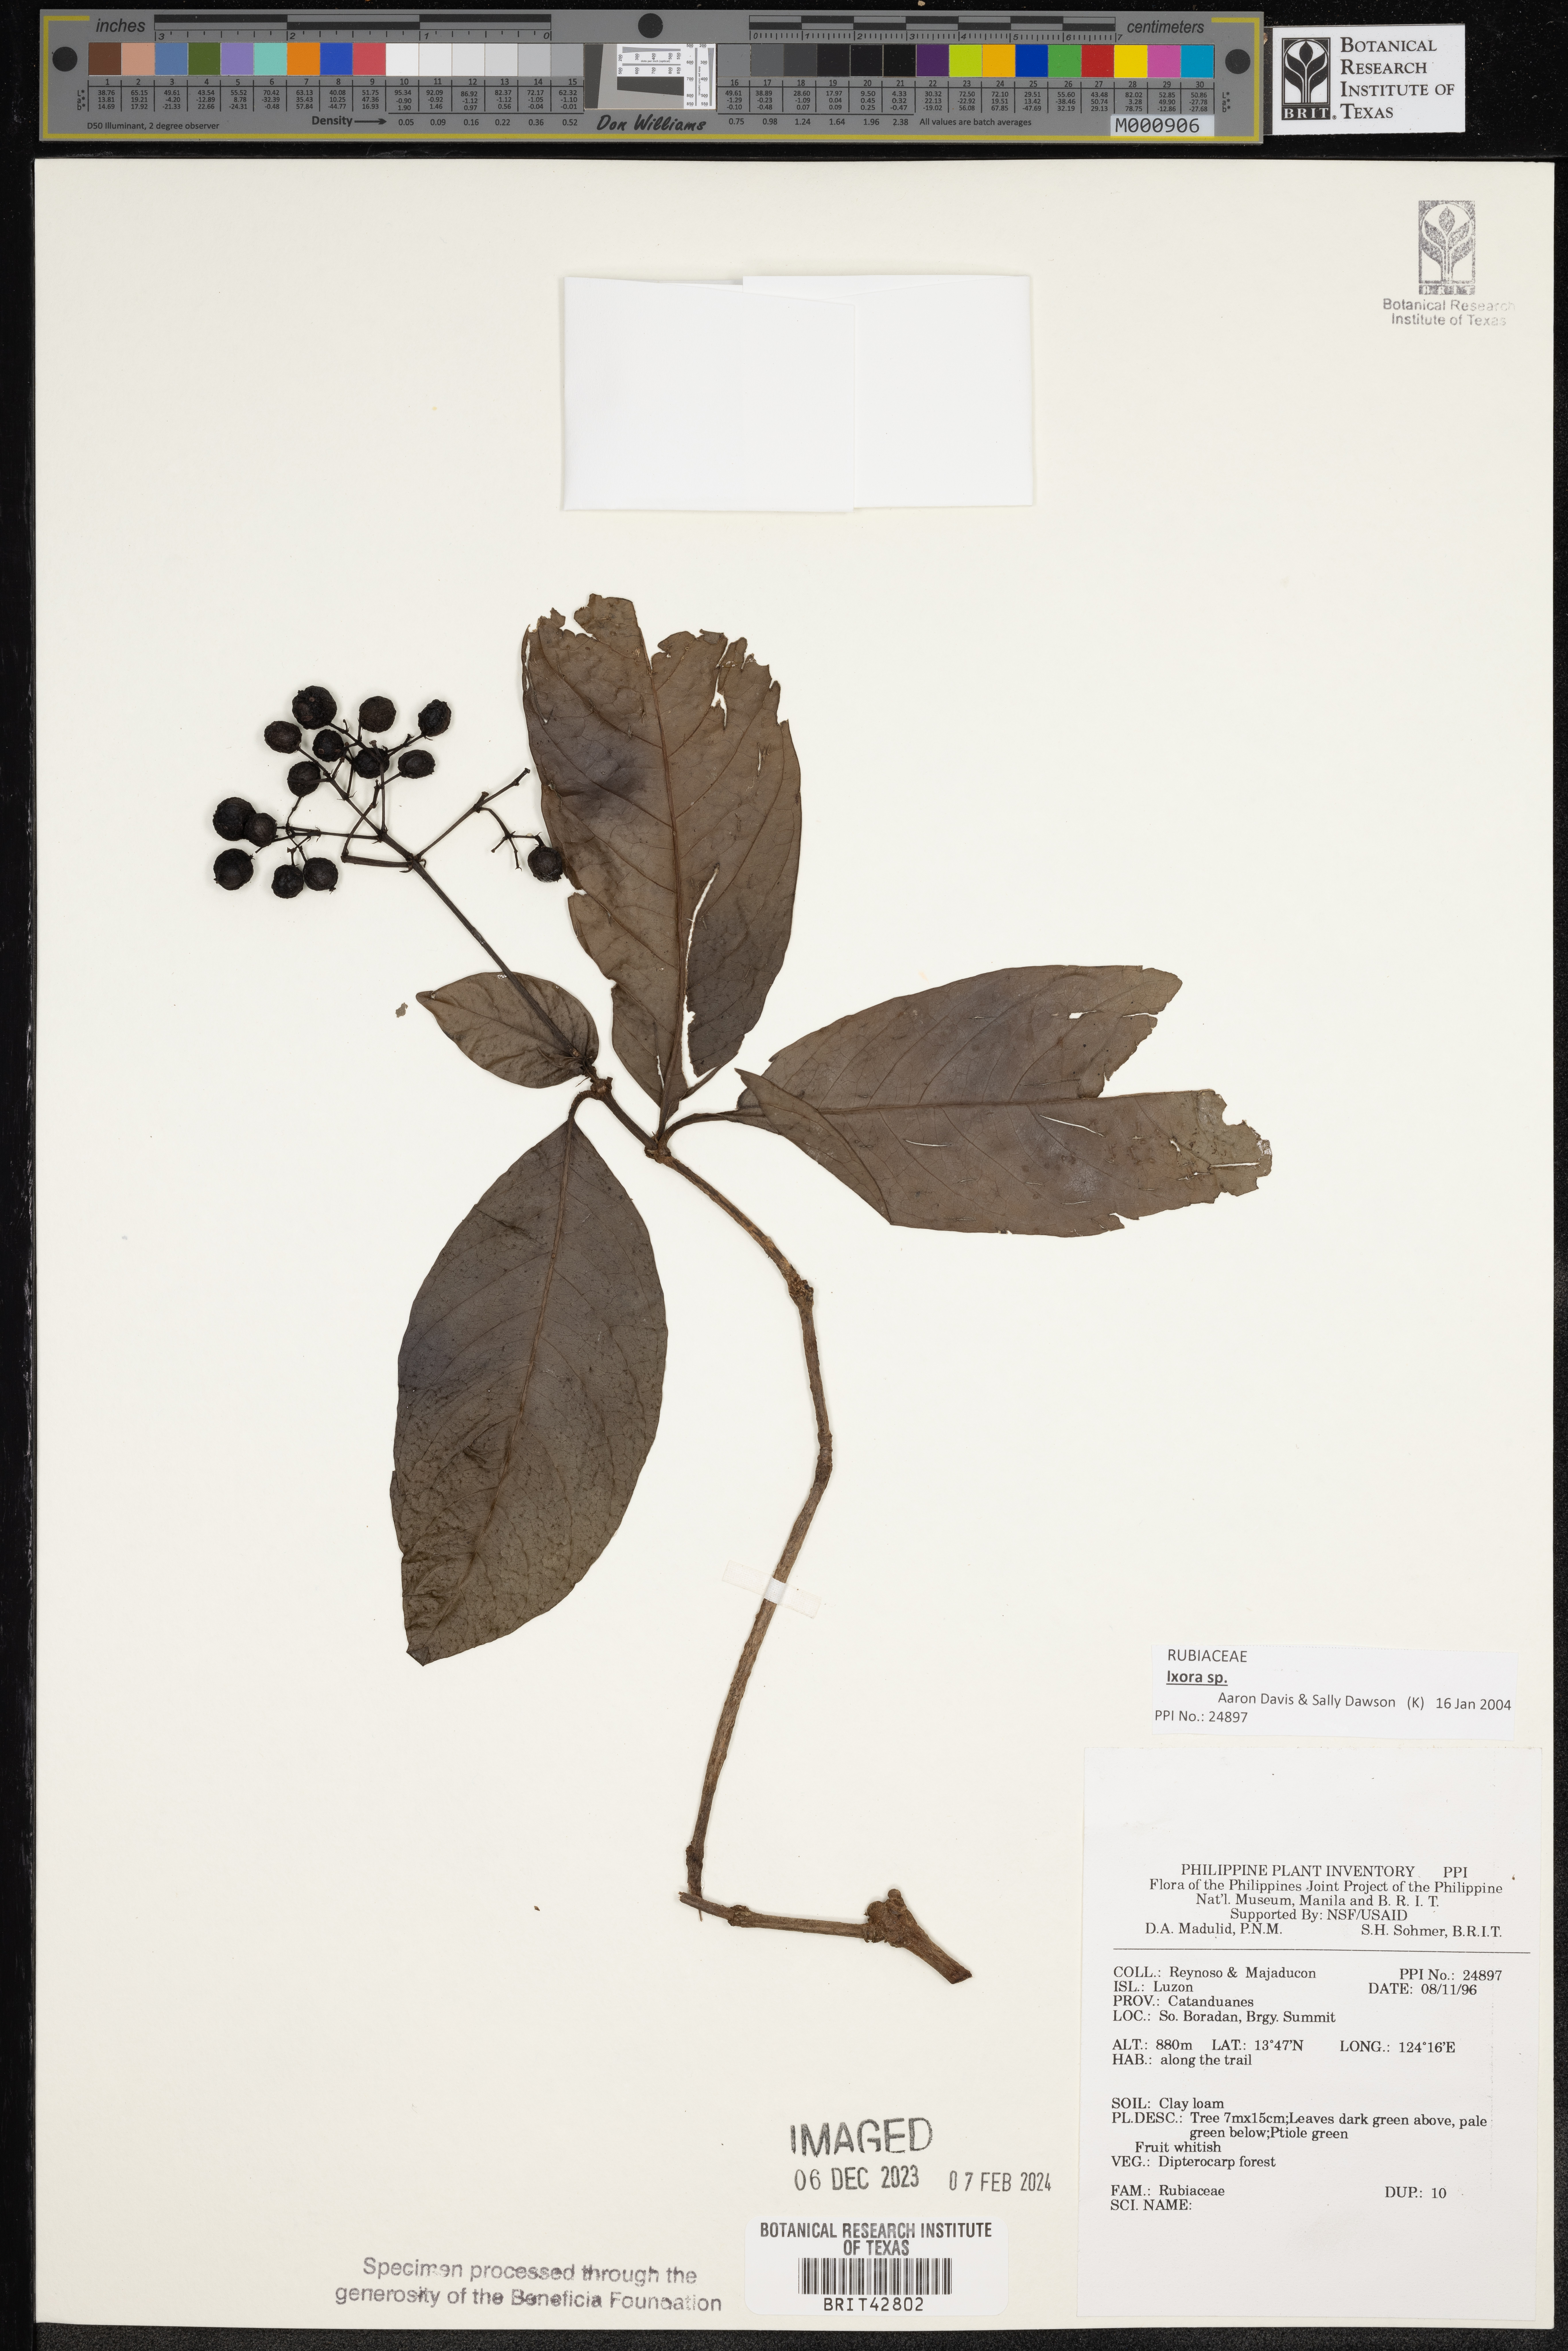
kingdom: Plantae
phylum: Tracheophyta
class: Magnoliopsida
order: Gentianales
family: Rubiaceae
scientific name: Rubiaceae
